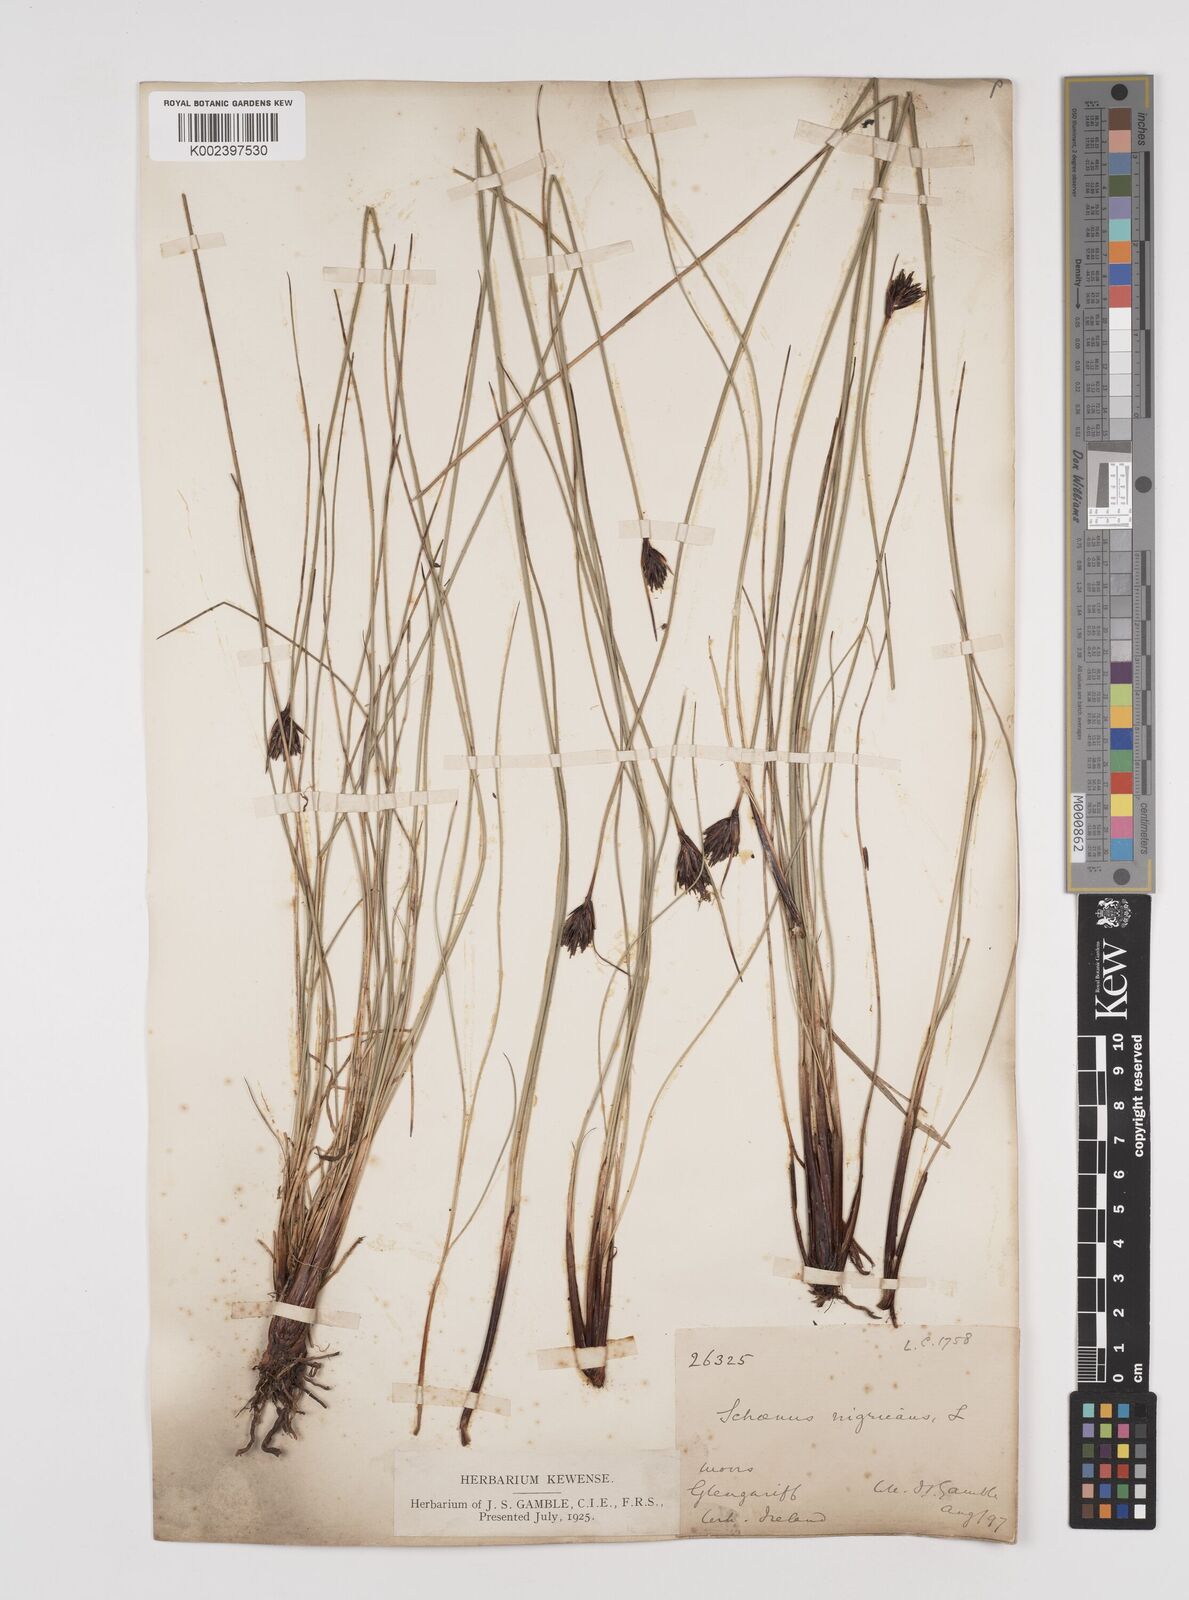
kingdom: Plantae
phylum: Tracheophyta
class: Liliopsida
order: Poales
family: Cyperaceae
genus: Schoenus
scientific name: Schoenus nigricans
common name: Black bog-rush
